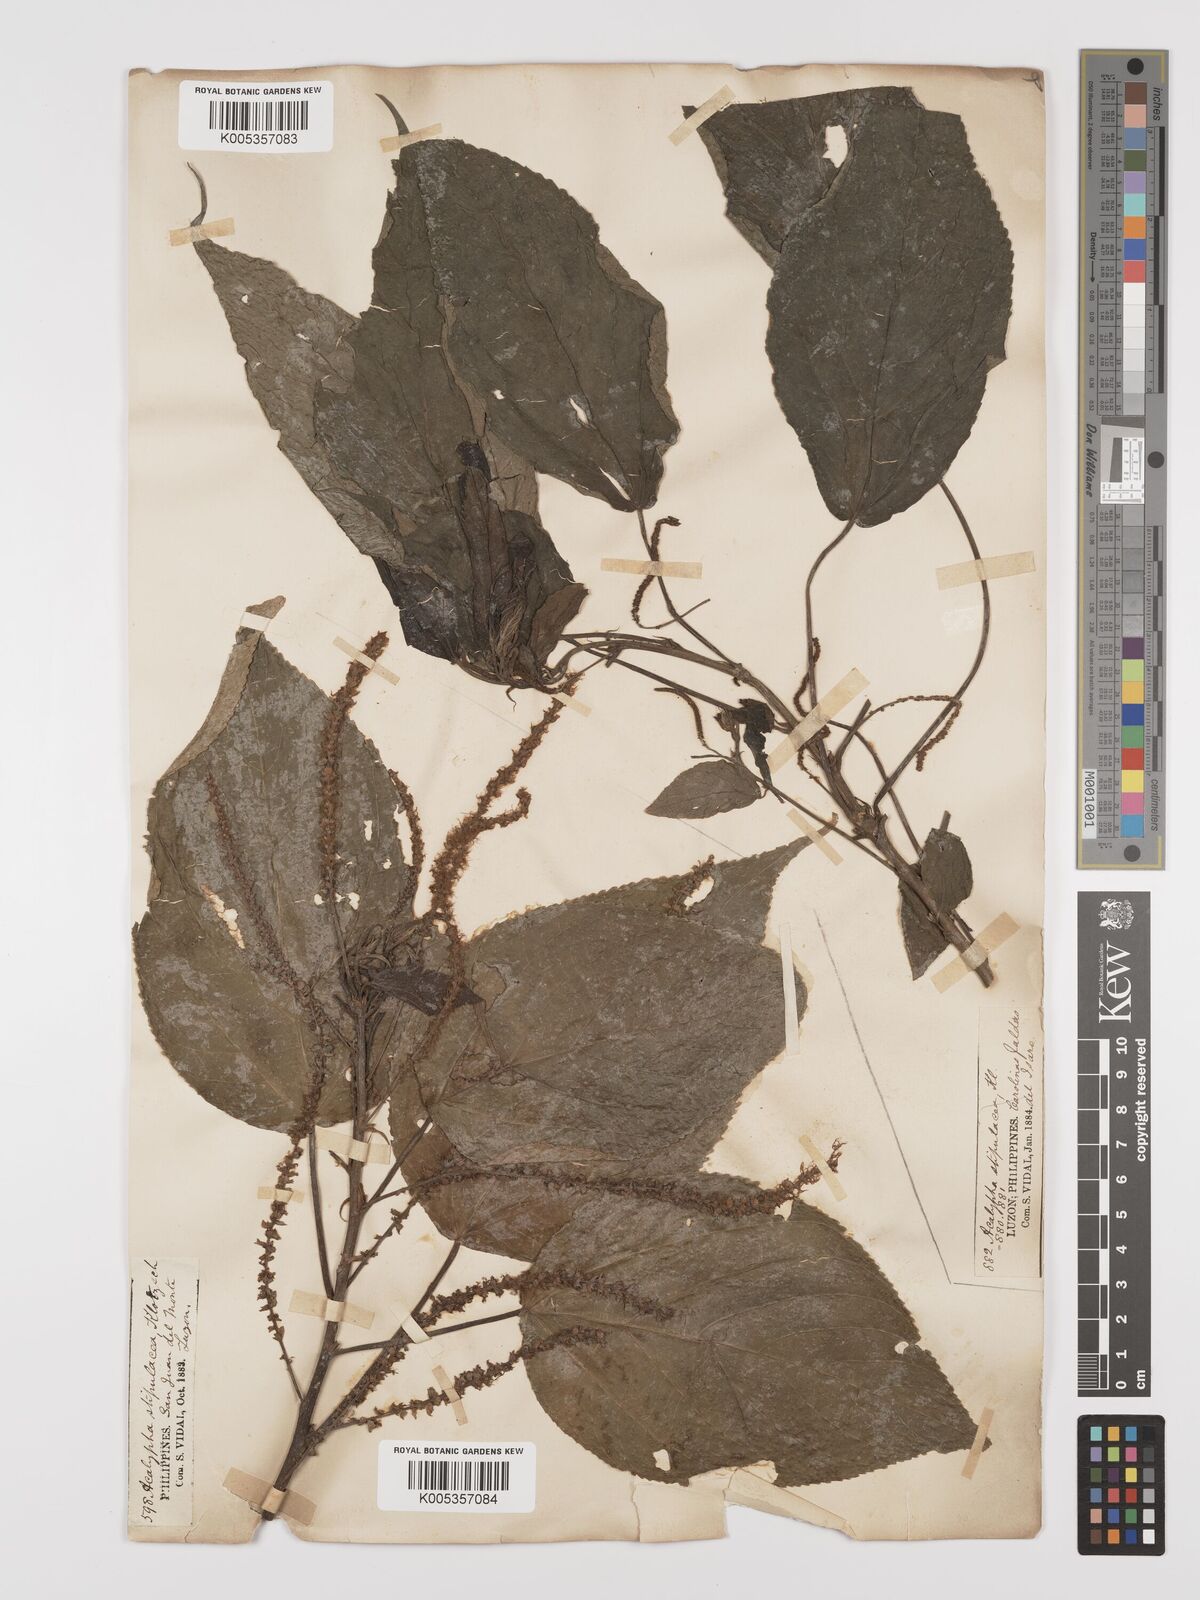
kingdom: Plantae
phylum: Tracheophyta
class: Magnoliopsida
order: Malpighiales
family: Euphorbiaceae
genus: Acalypha
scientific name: Acalypha amentacea
